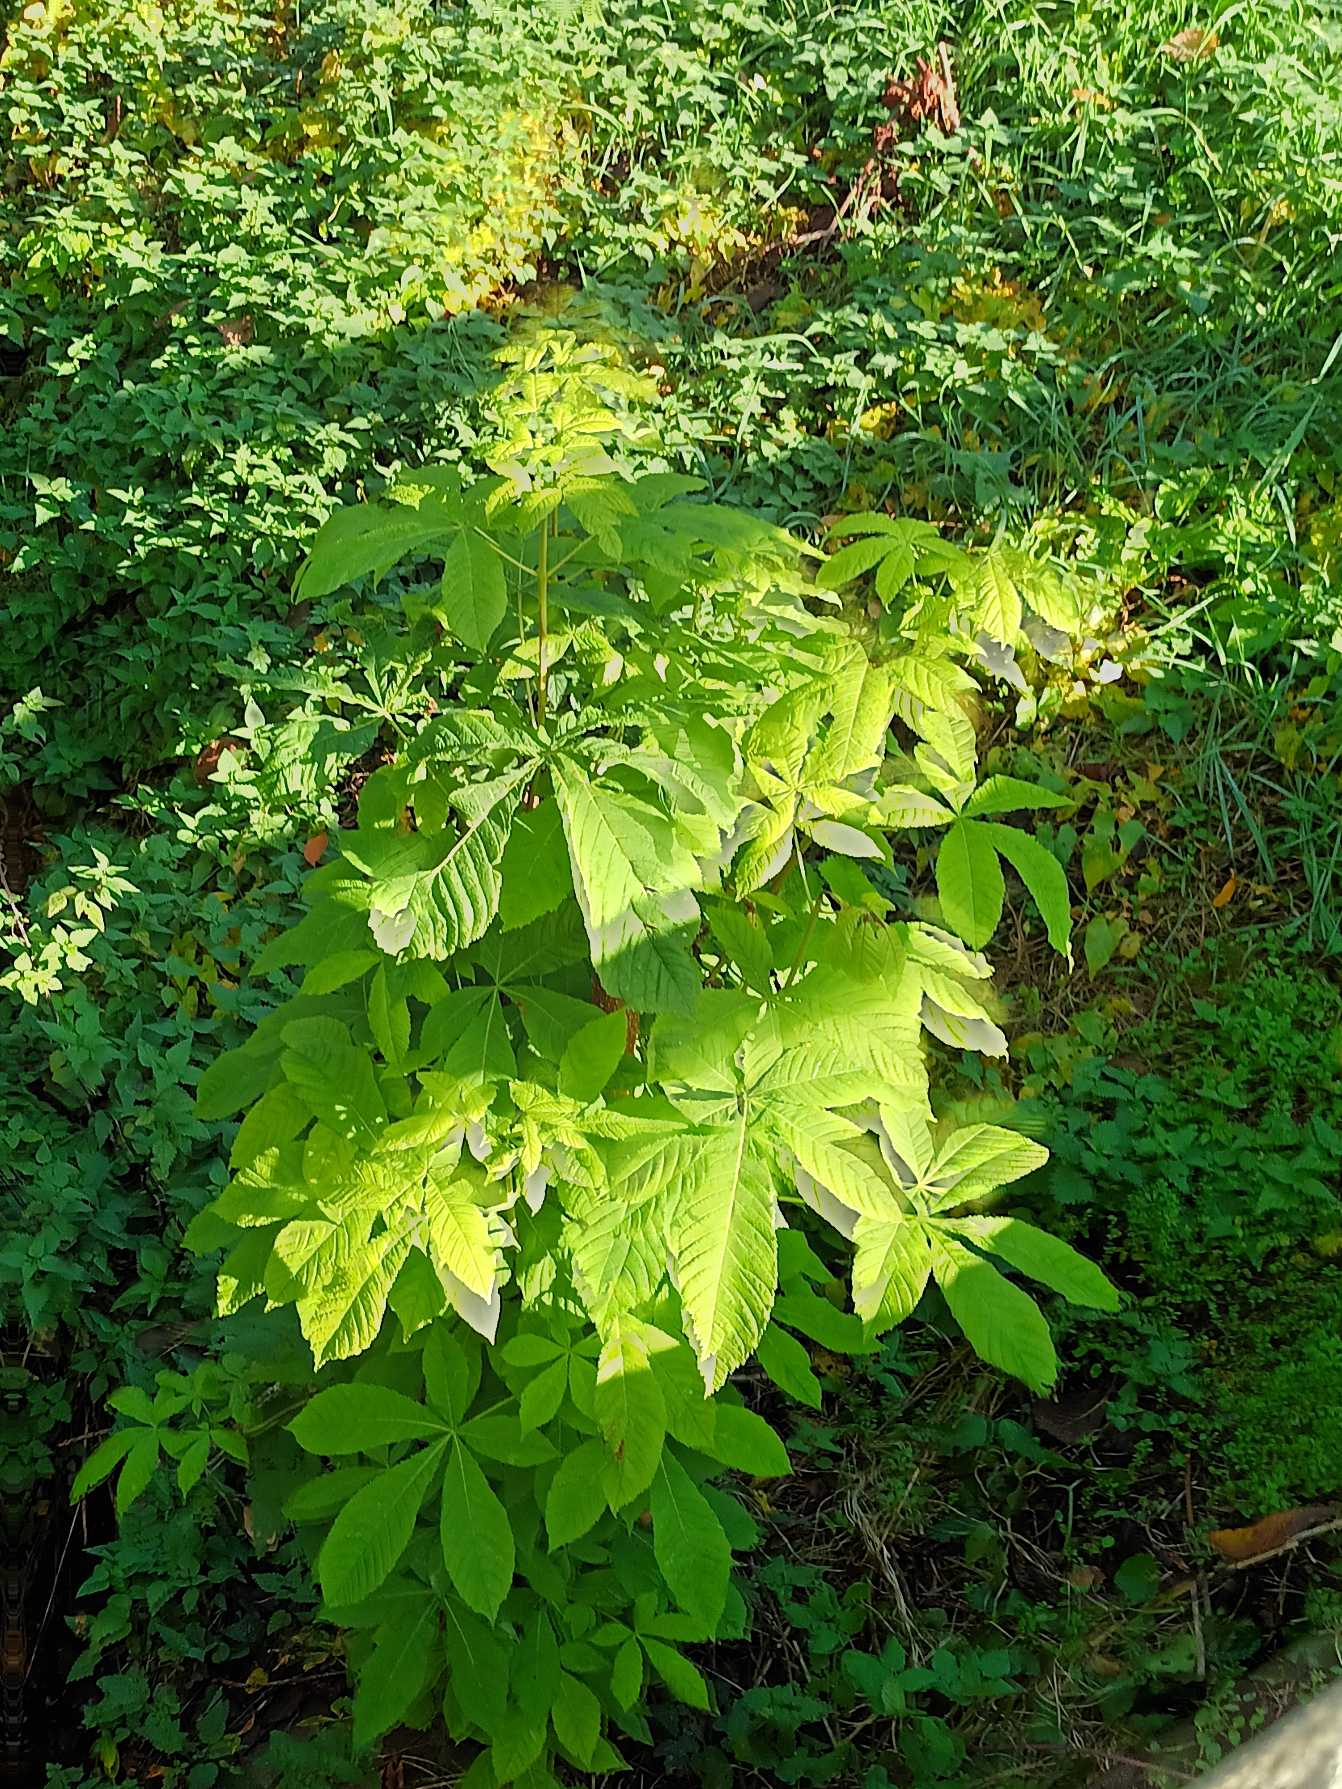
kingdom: Plantae
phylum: Tracheophyta
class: Magnoliopsida
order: Sapindales
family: Sapindaceae
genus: Aesculus
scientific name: Aesculus hippocastanum
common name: Hestekastanie
